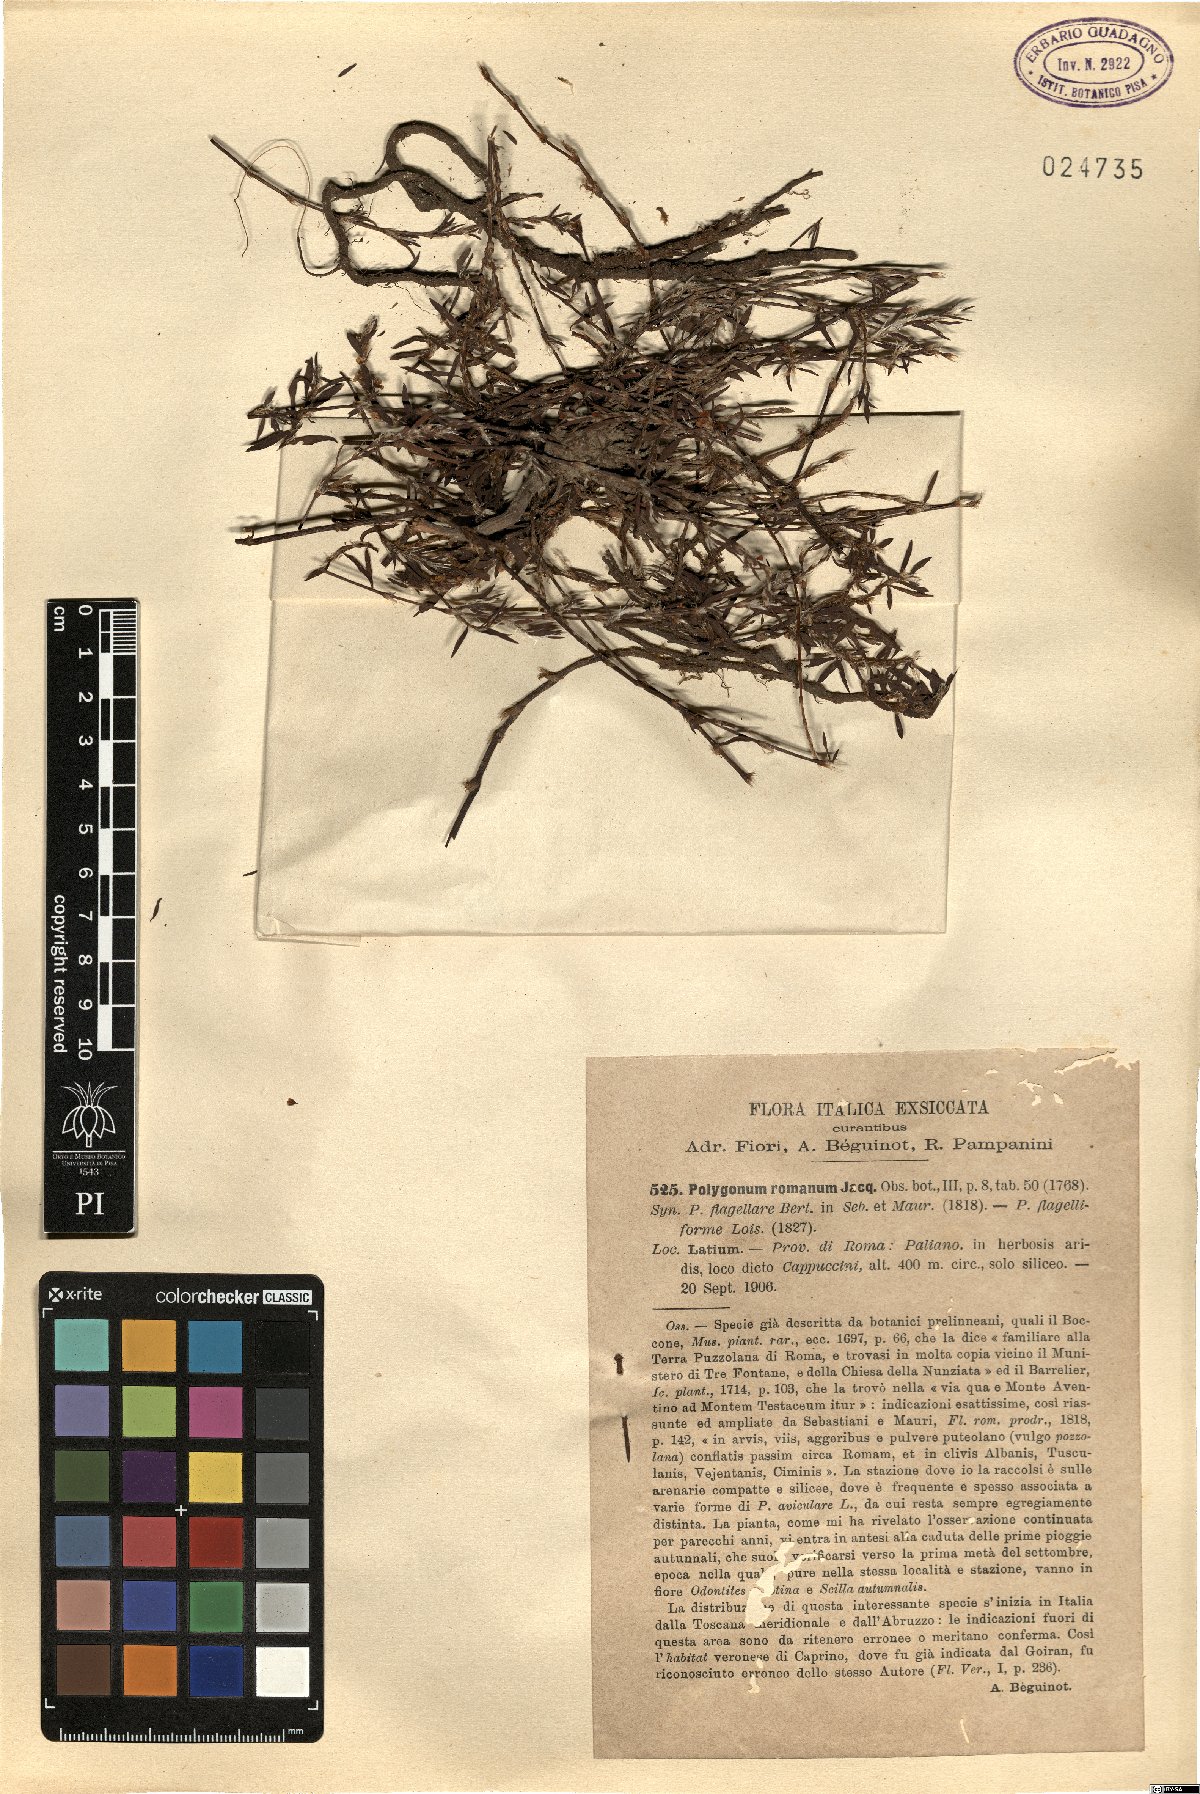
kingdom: Plantae
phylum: Tracheophyta
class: Magnoliopsida
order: Caryophyllales
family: Polygonaceae
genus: Polygonum
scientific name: Polygonum romanum
